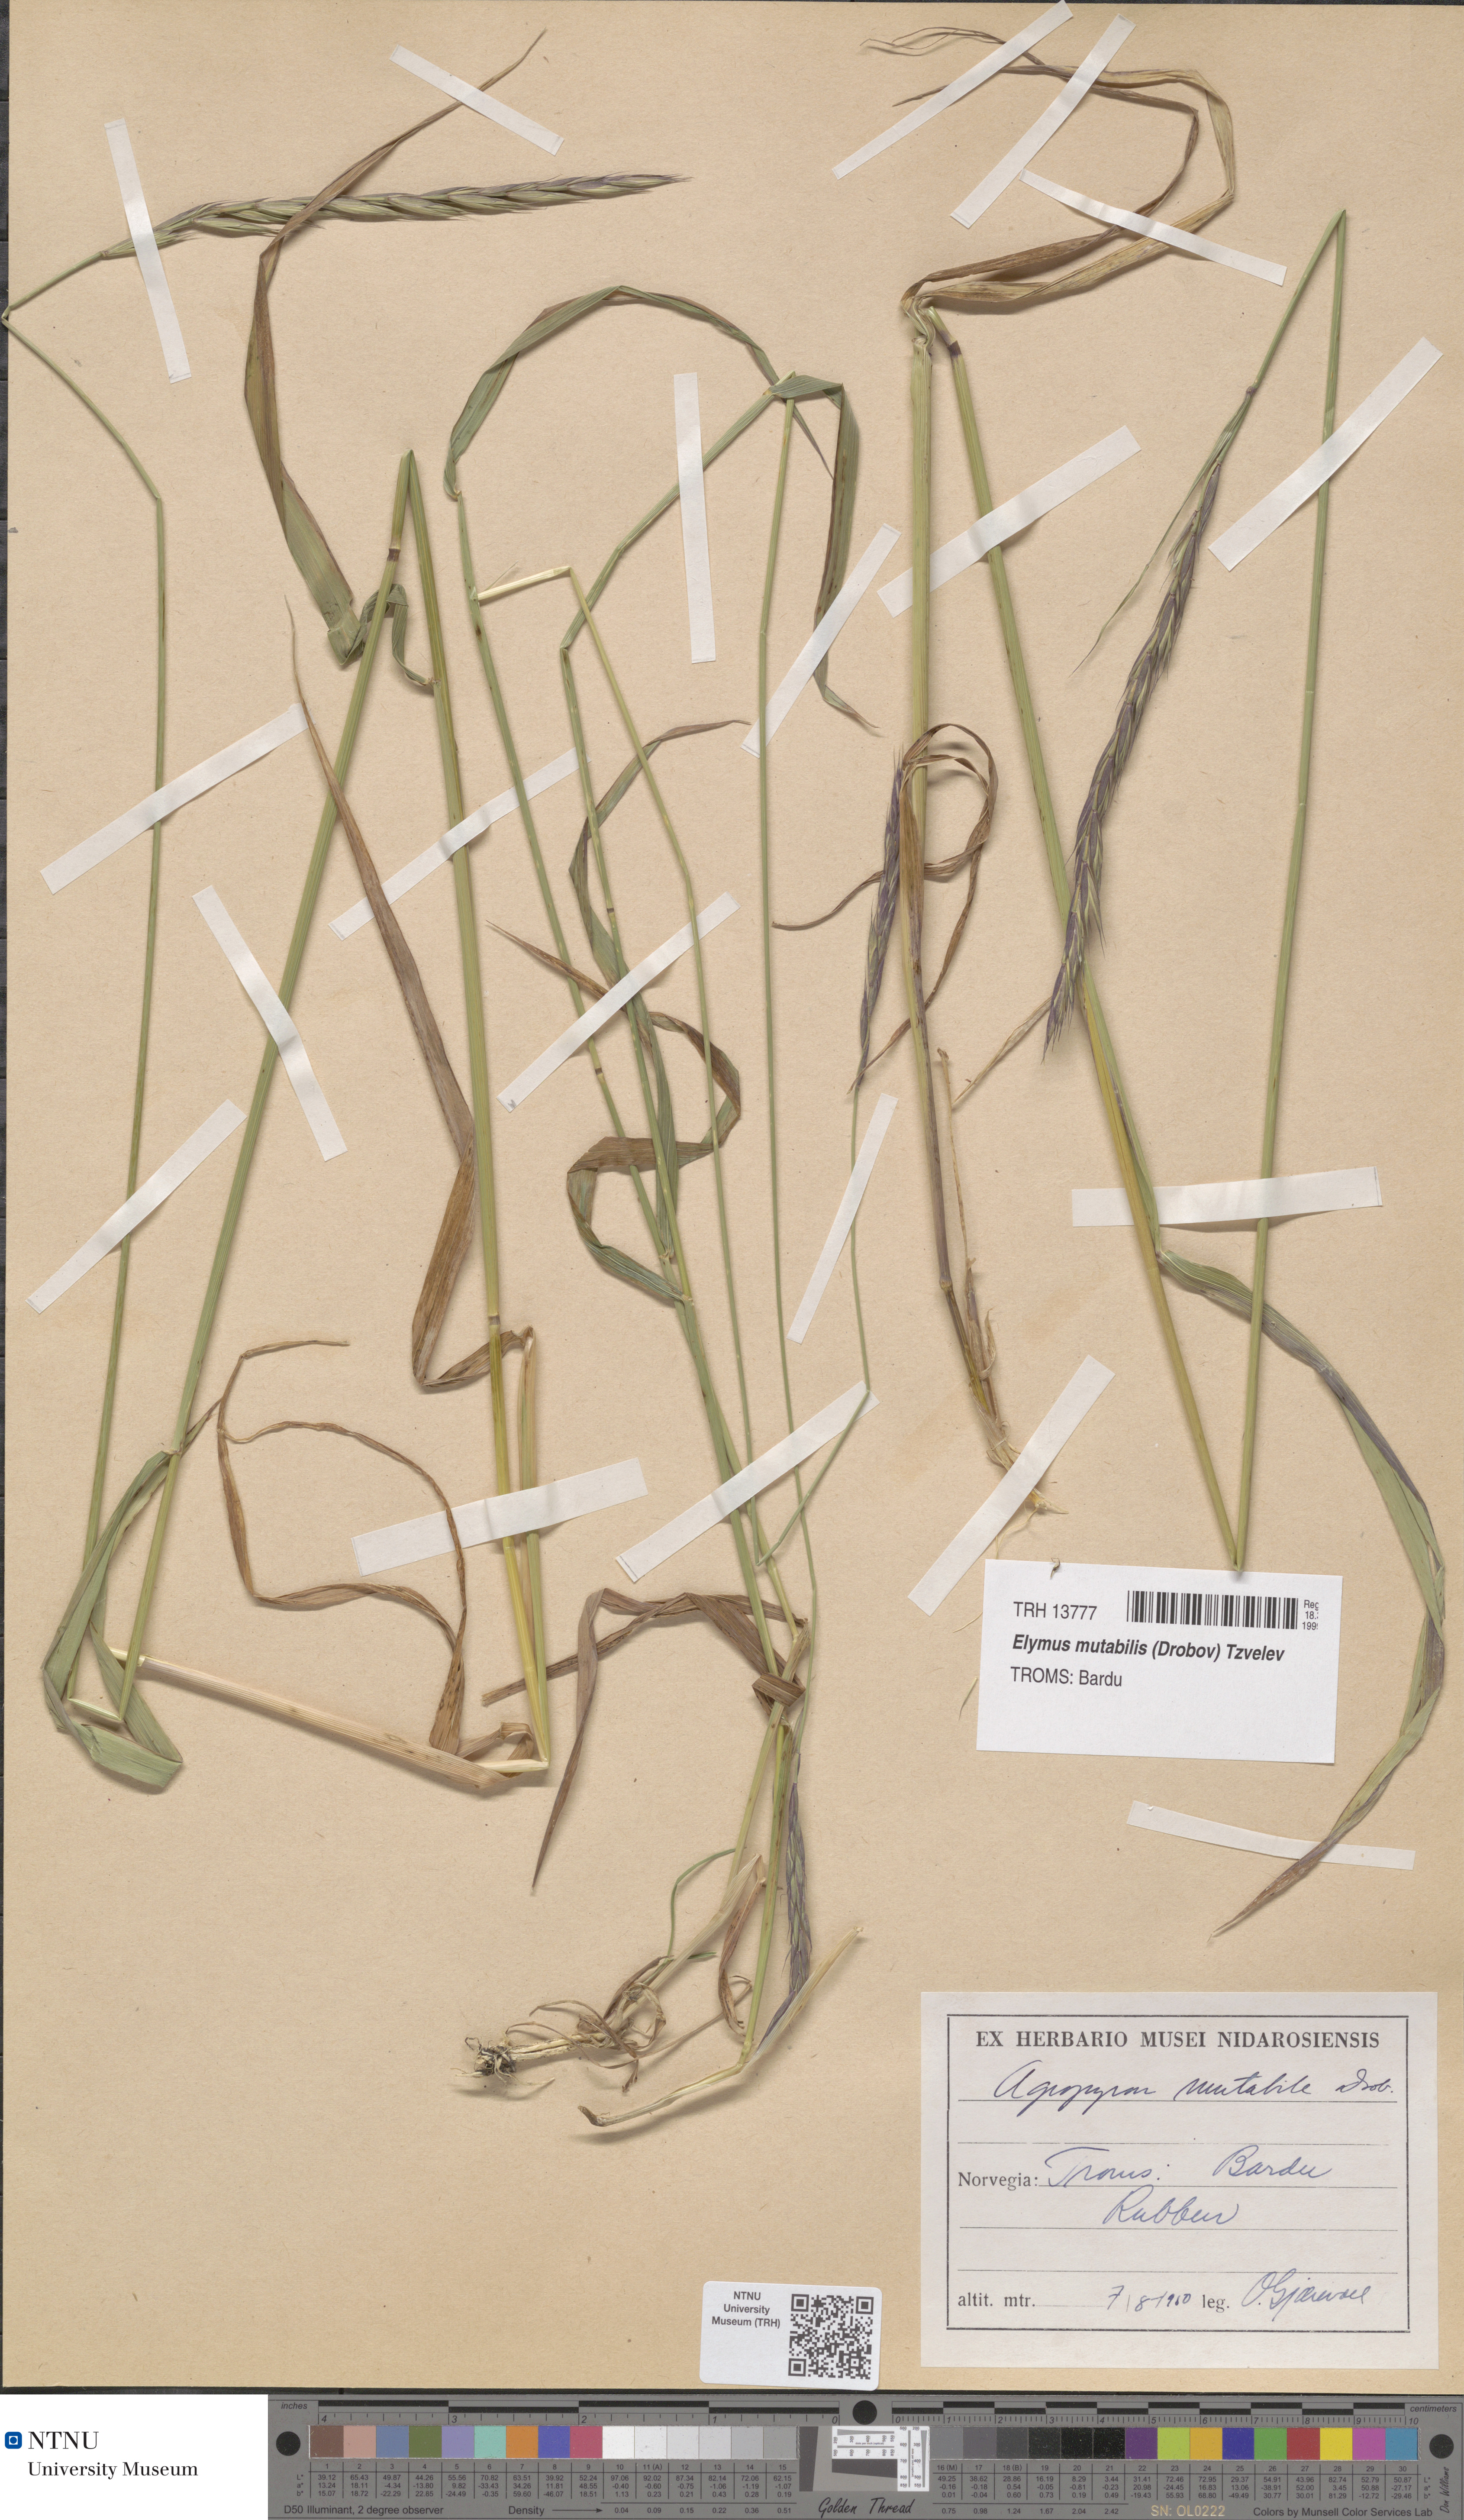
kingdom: Plantae
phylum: Tracheophyta
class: Liliopsida
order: Poales
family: Poaceae
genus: Elymus
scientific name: Elymus mutabilis
